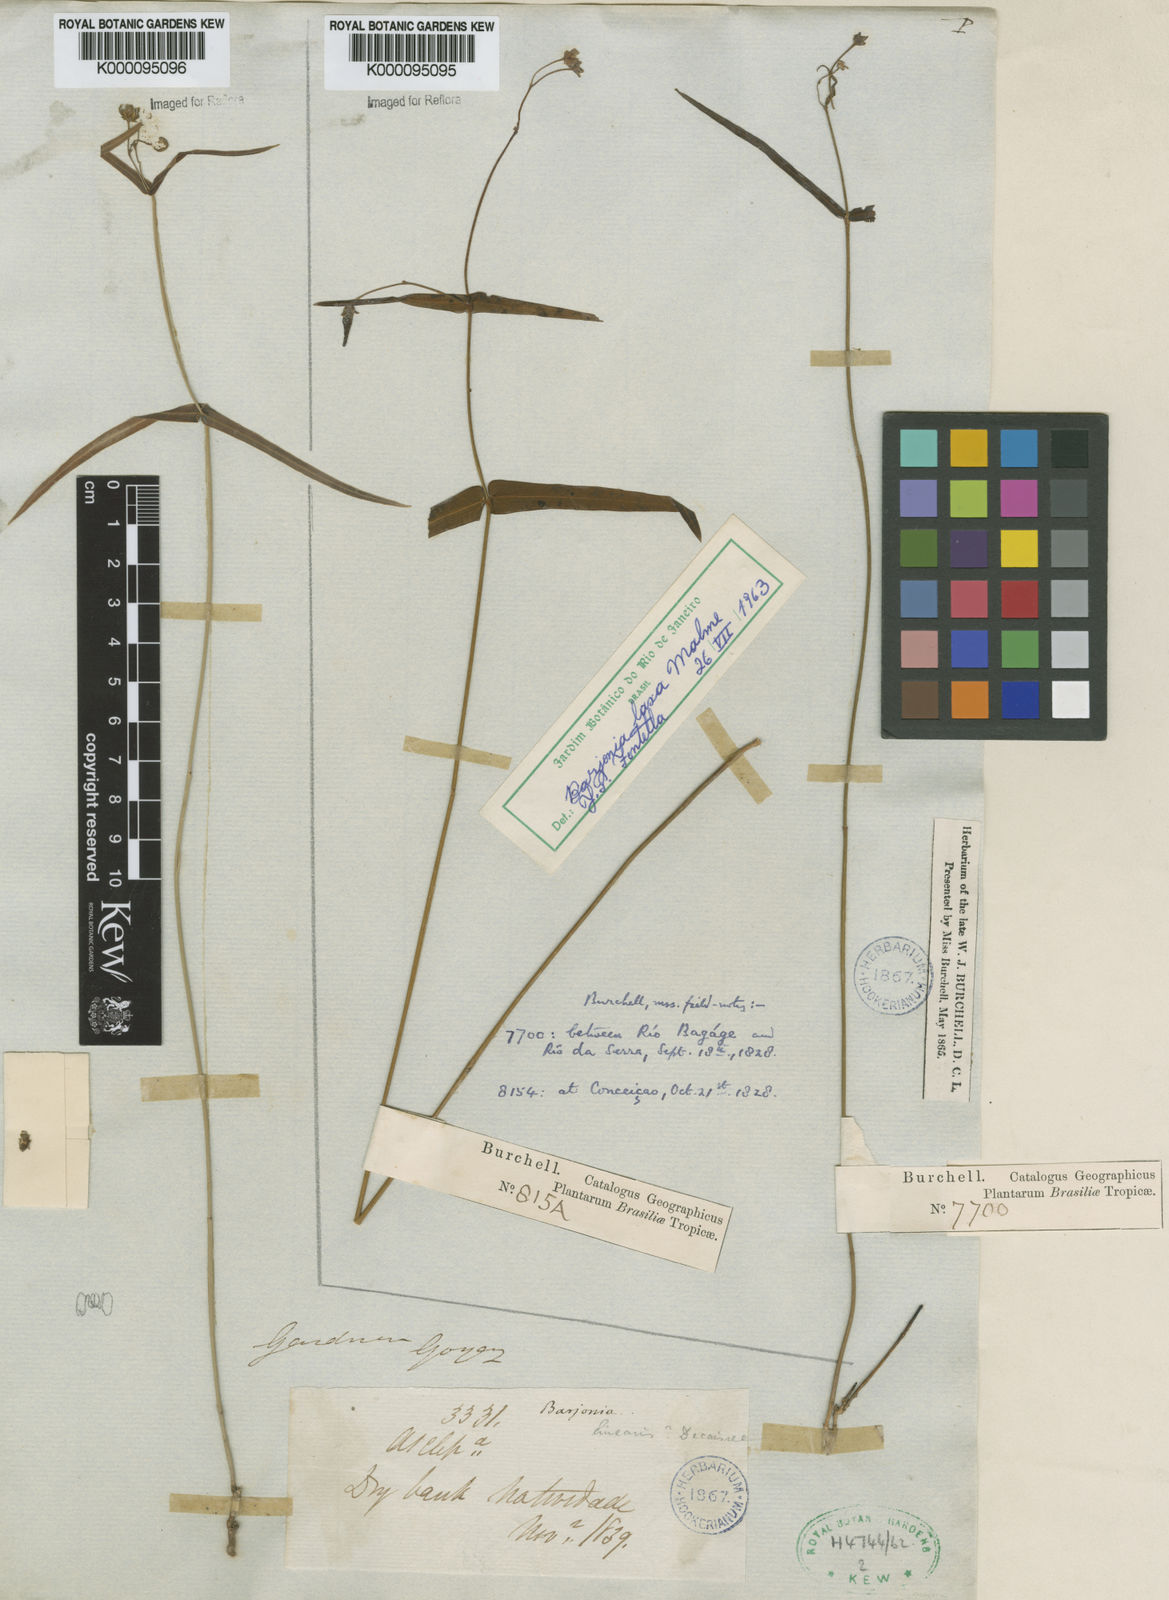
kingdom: Plantae
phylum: Tracheophyta
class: Magnoliopsida
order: Gentianales
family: Apocynaceae
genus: Barjonia
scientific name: Barjonia laxa
